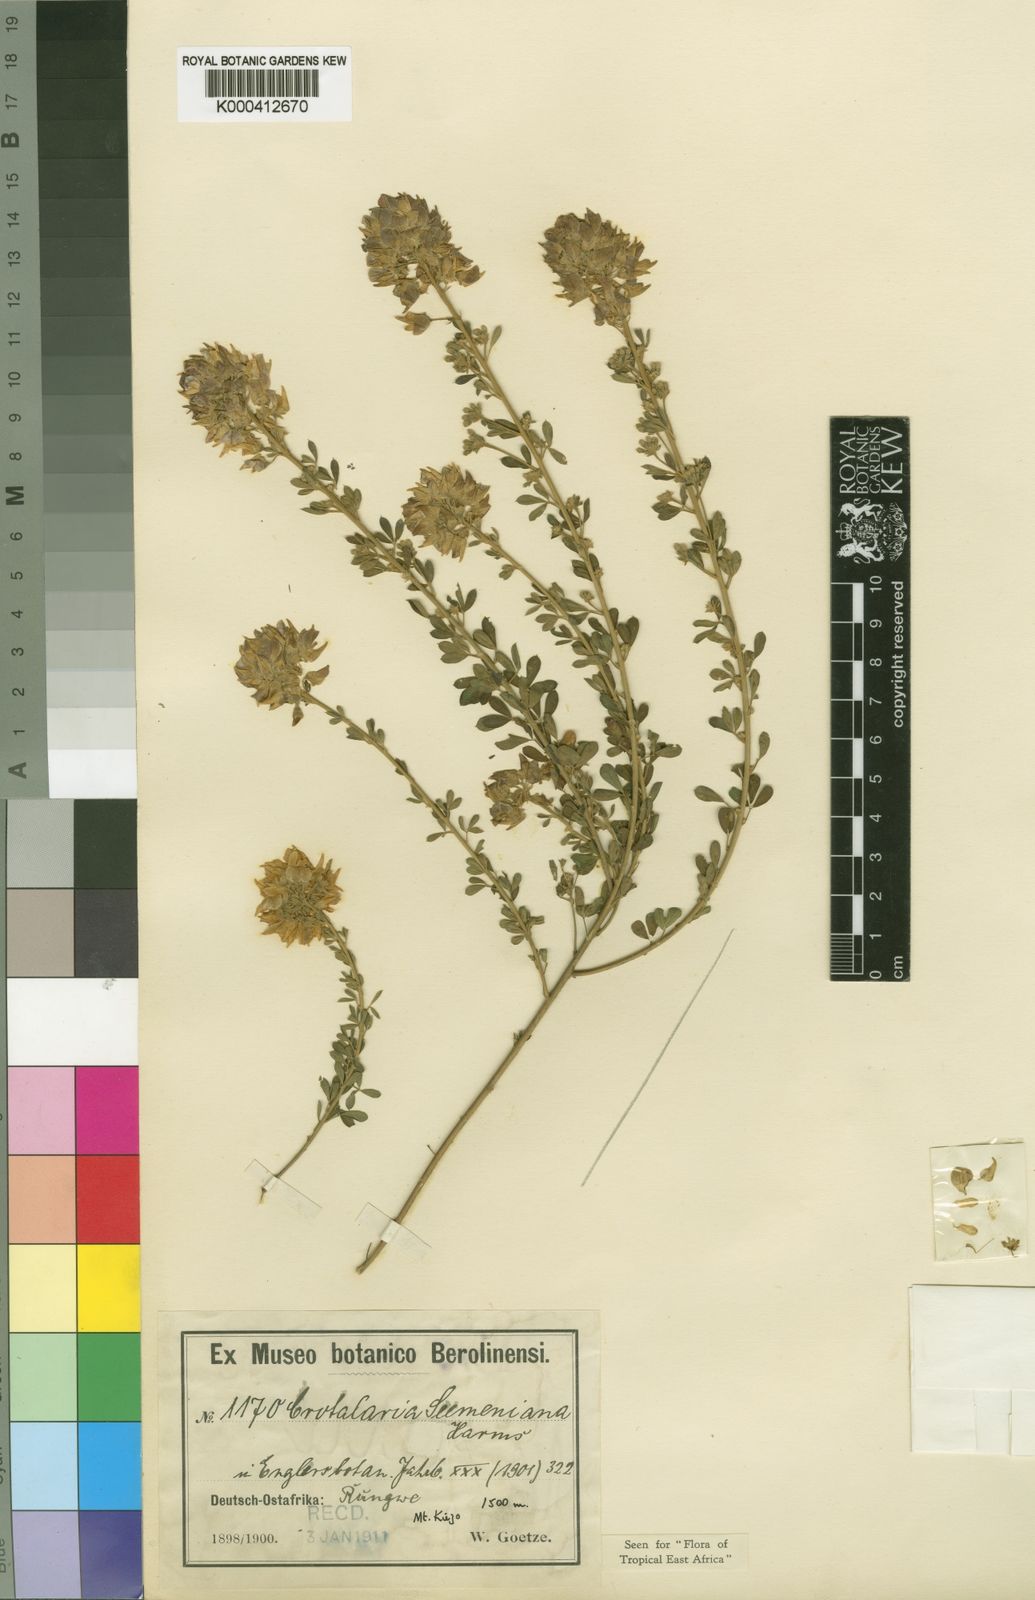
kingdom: Plantae
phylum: Tracheophyta
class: Magnoliopsida
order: Fabales
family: Fabaceae
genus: Crotalaria
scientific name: Crotalaria seemeniana
